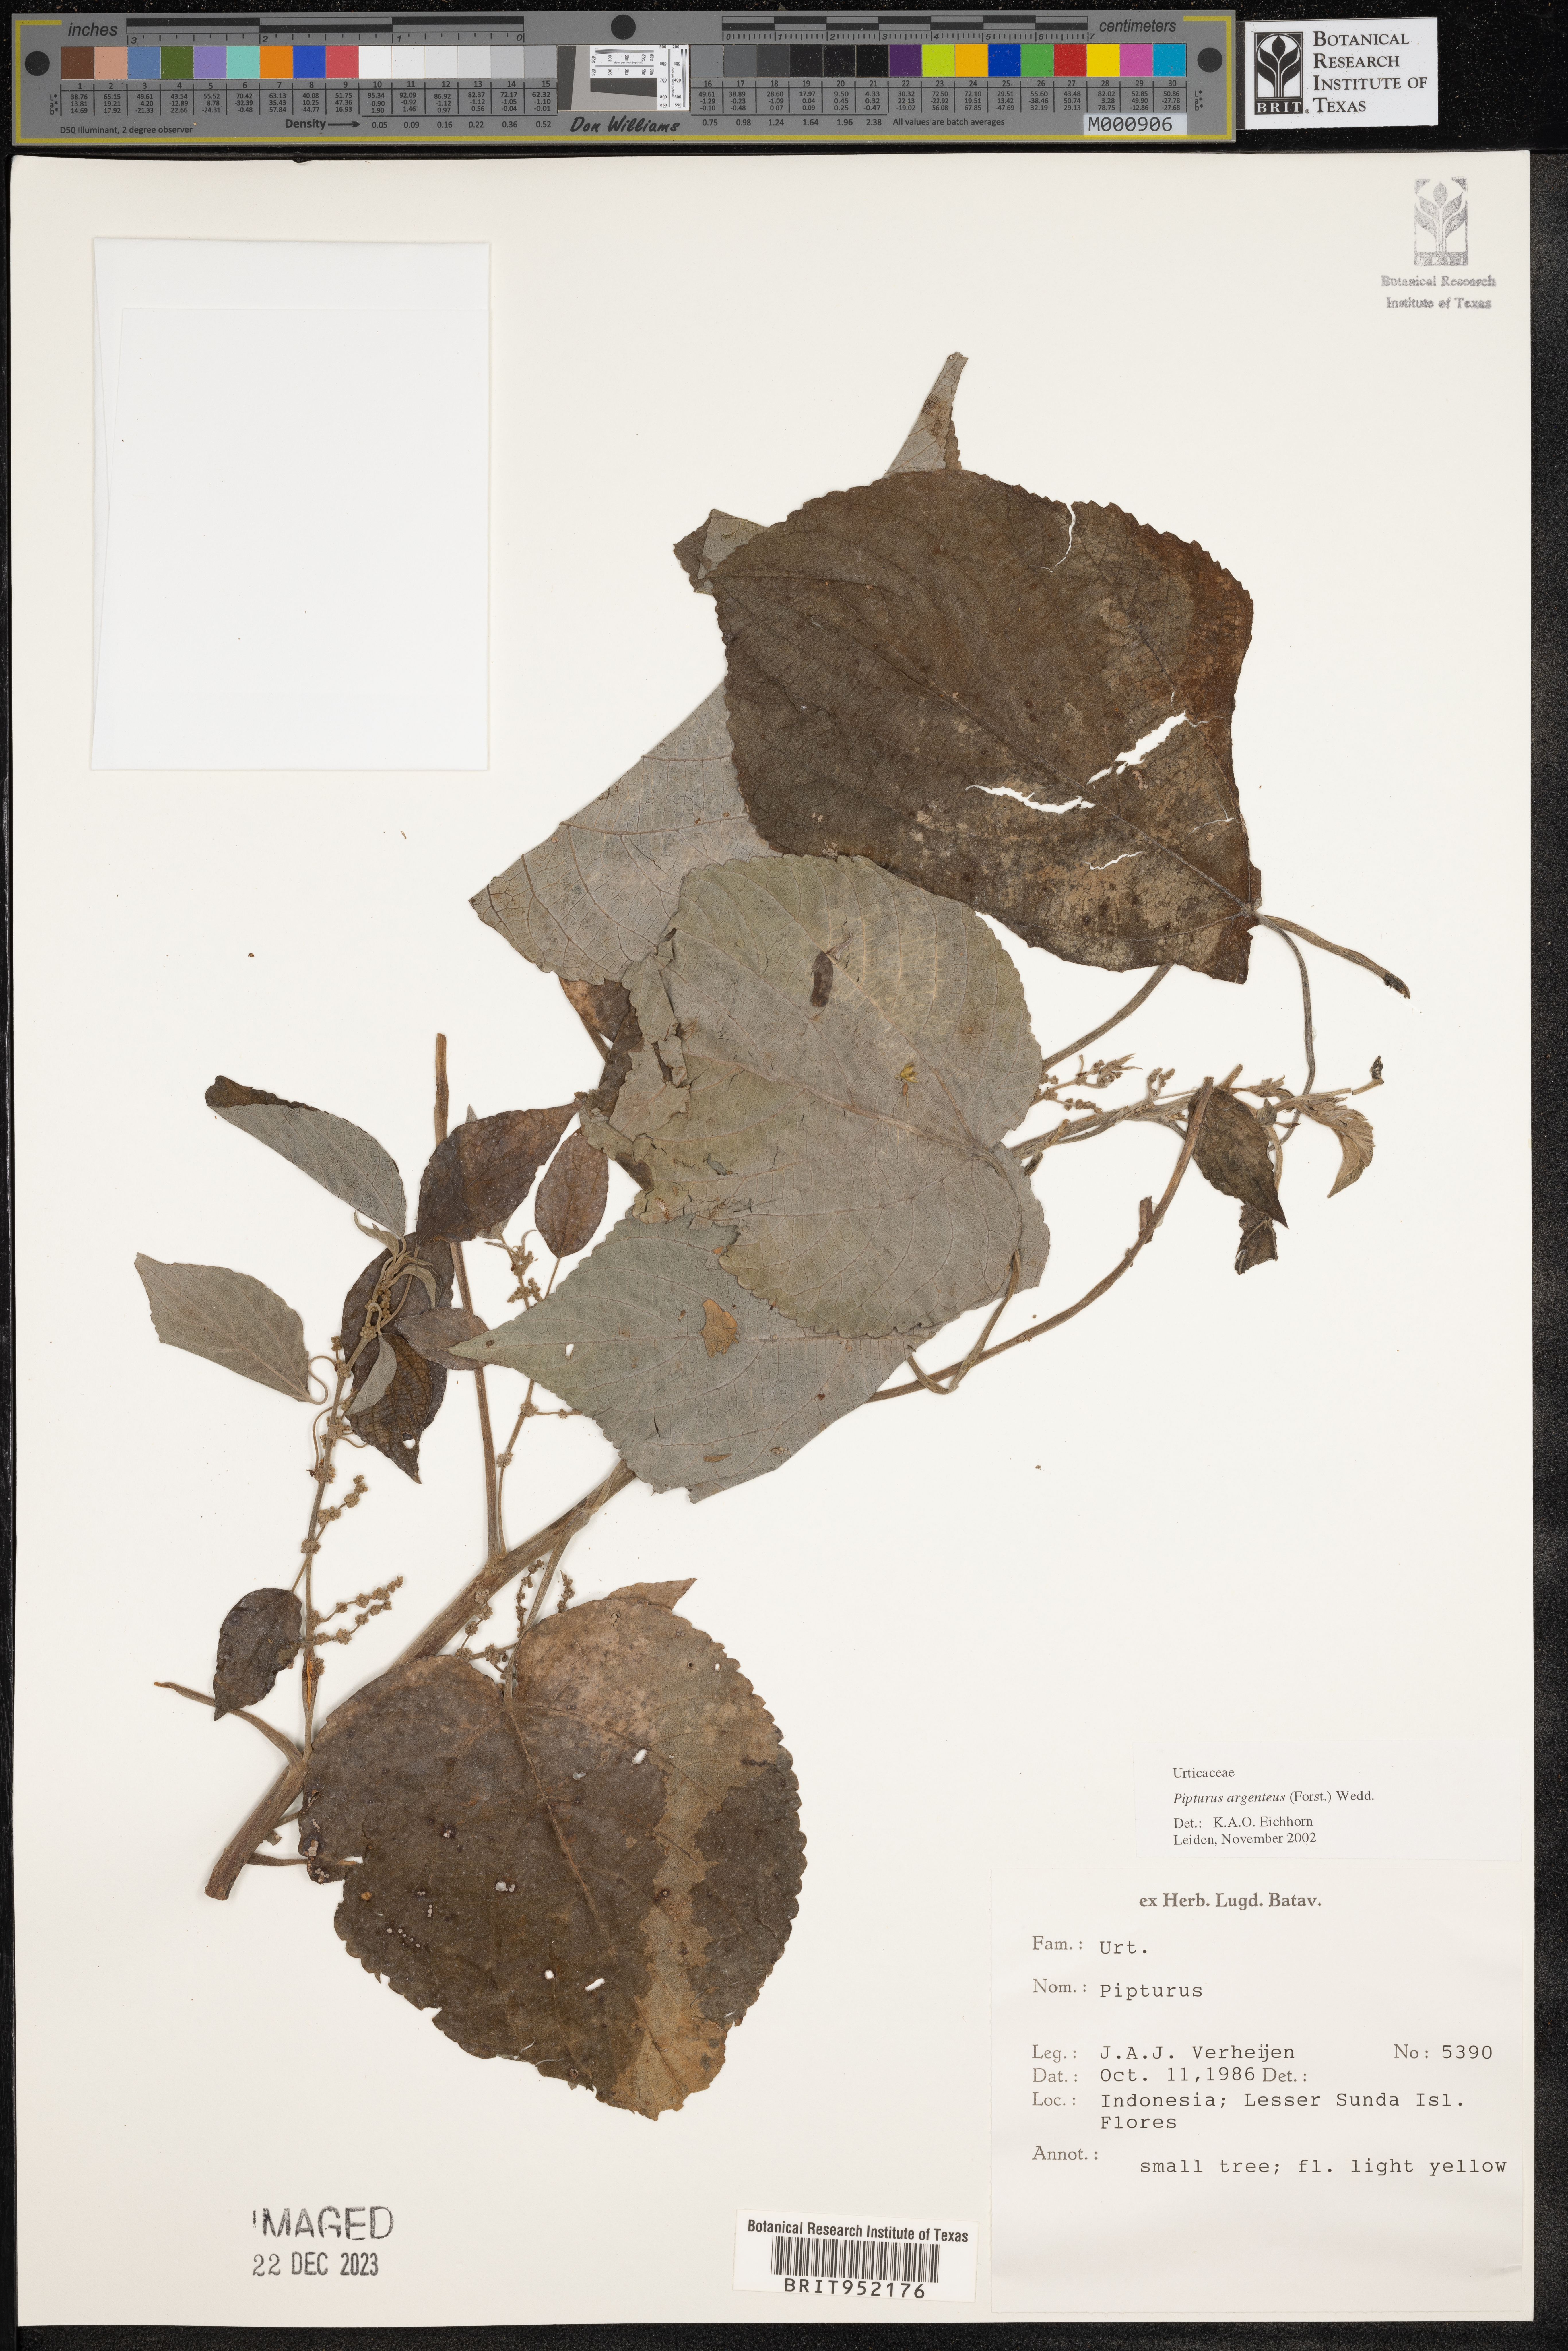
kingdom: Plantae
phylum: Tracheophyta
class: Magnoliopsida
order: Rosales
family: Urticaceae
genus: Pipturus
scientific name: Pipturus argenteus
